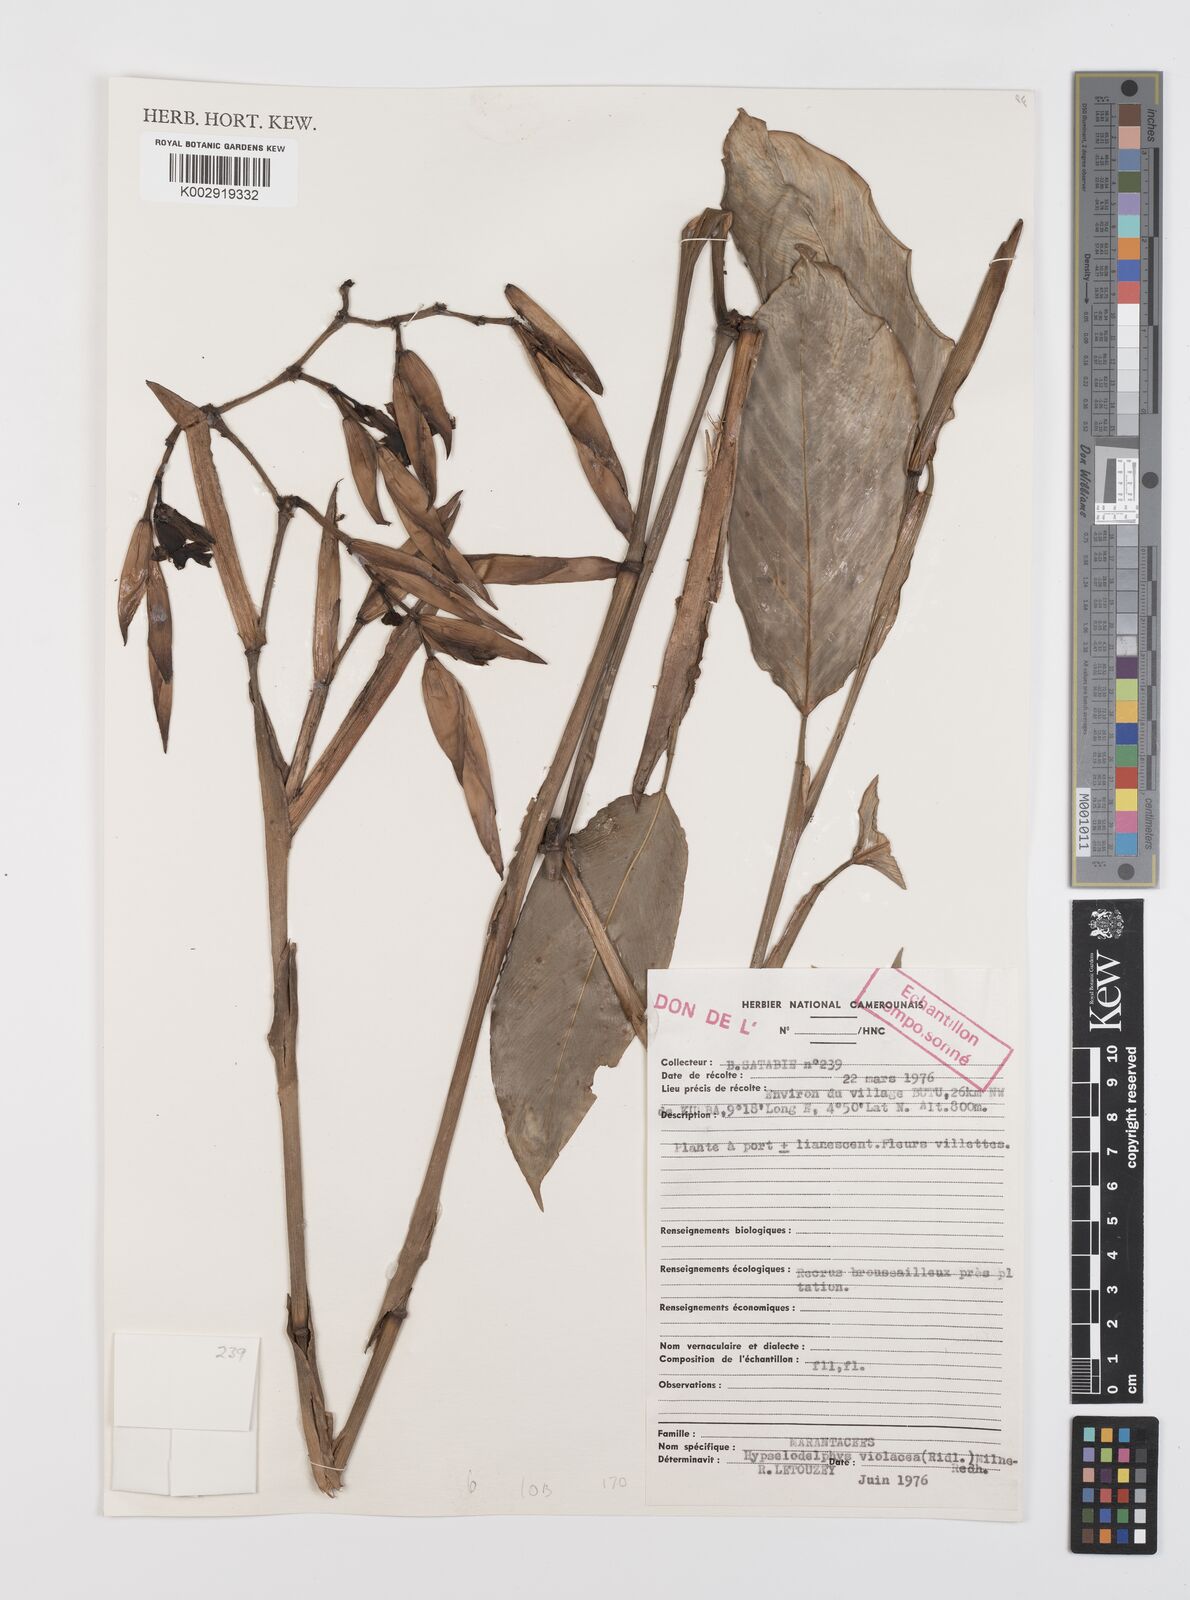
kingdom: Plantae
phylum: Tracheophyta
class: Liliopsida
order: Zingiberales
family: Marantaceae
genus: Hypselodelphys
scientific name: Hypselodelphys violacea
